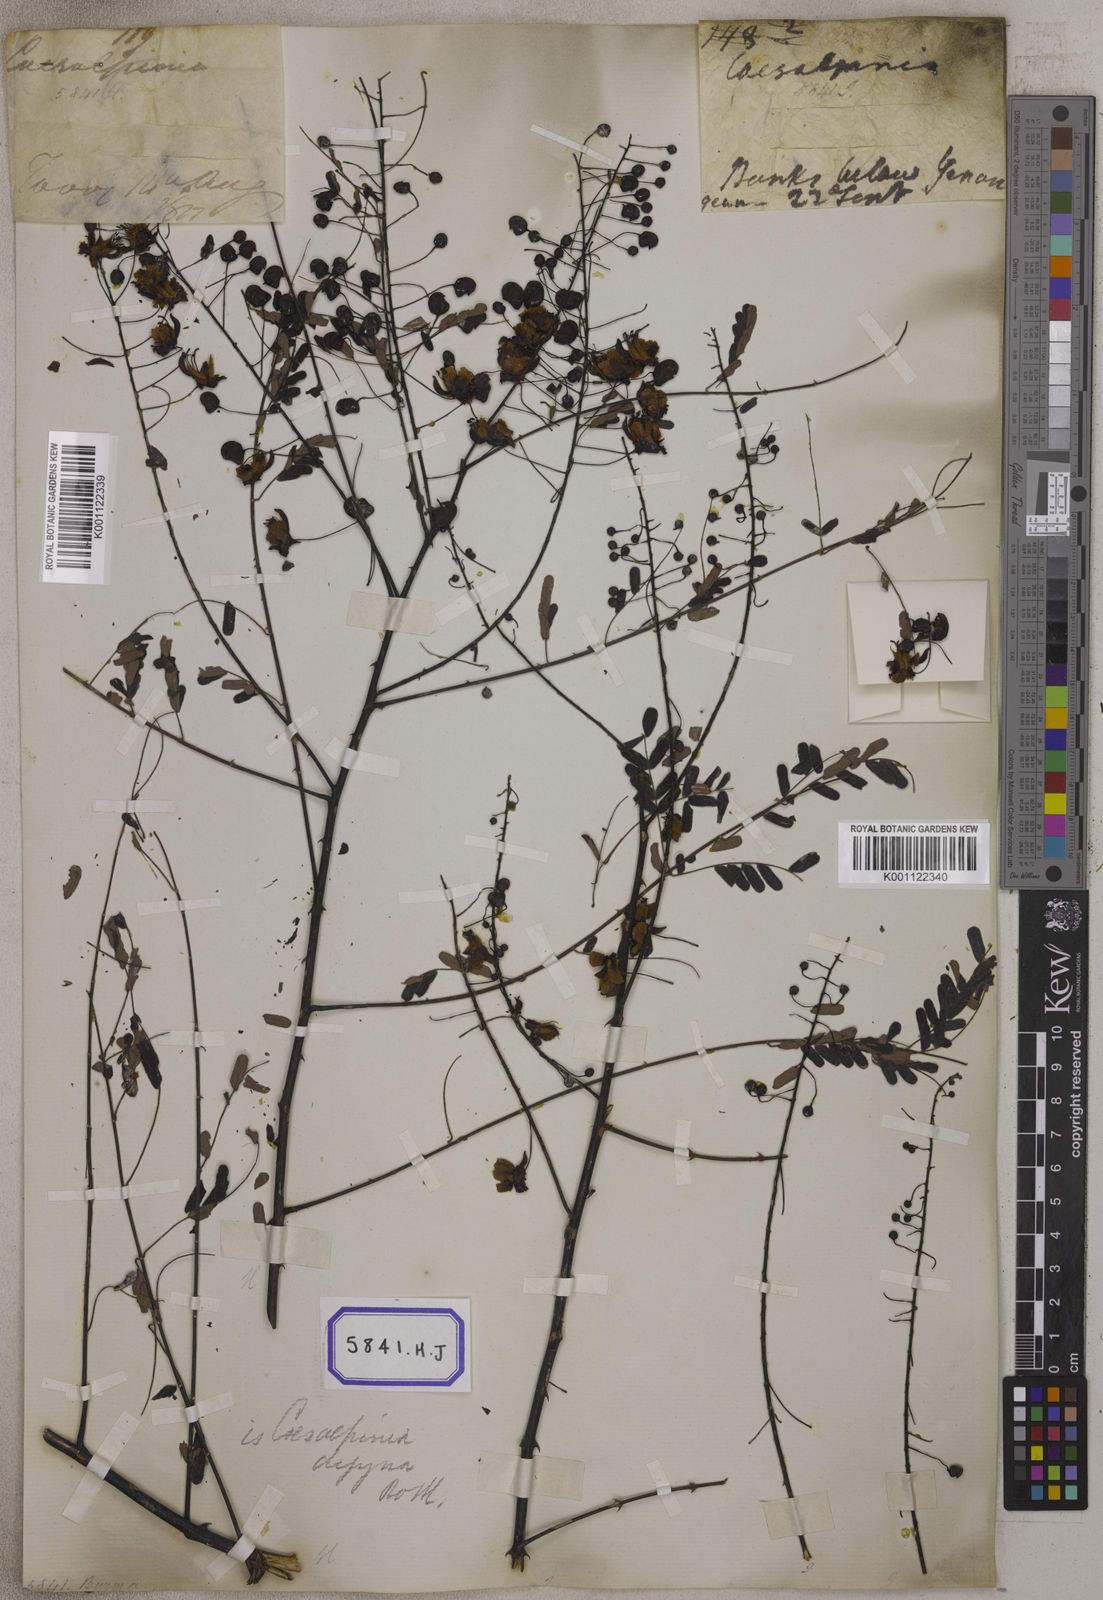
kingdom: Plantae
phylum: Tracheophyta
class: Magnoliopsida
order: Fabales
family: Fabaceae
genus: Pterolobium
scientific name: Pterolobium hexapetalum
